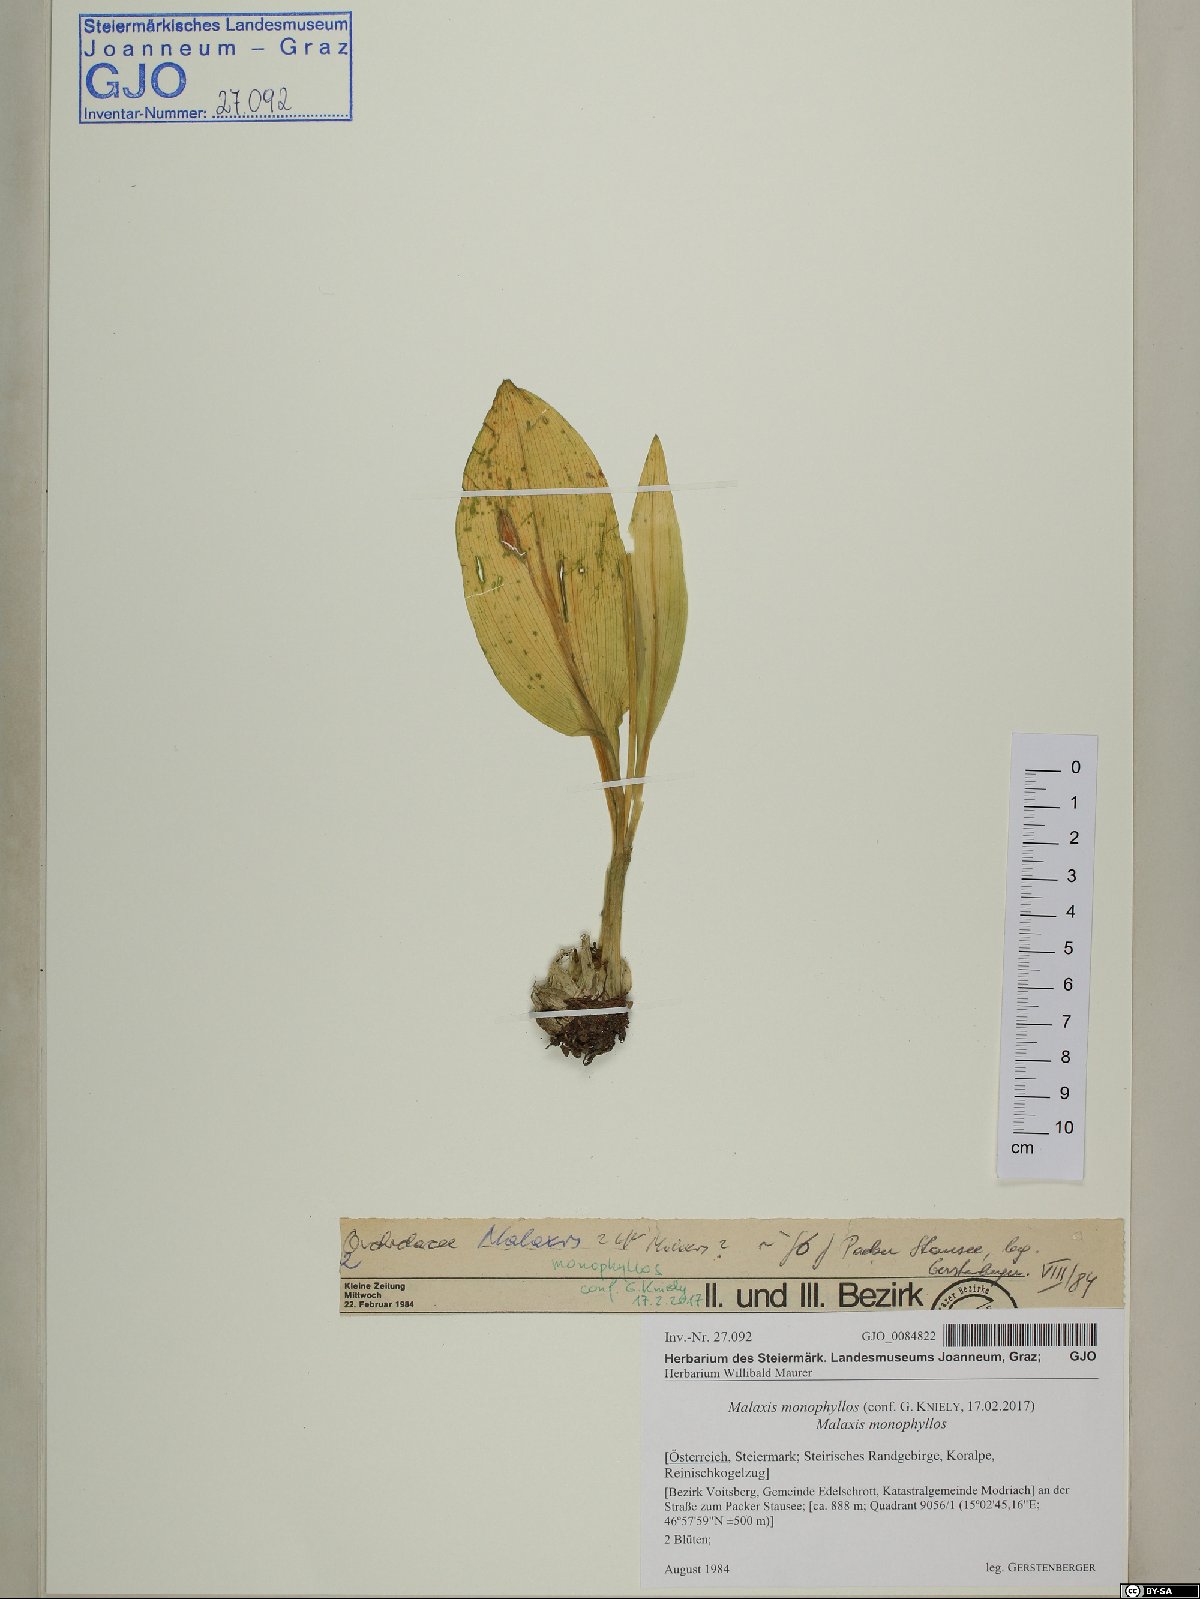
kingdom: Plantae
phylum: Tracheophyta
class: Liliopsida
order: Asparagales
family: Orchidaceae
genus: Malaxis
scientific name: Malaxis monophyllos
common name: White adder's-mouth
